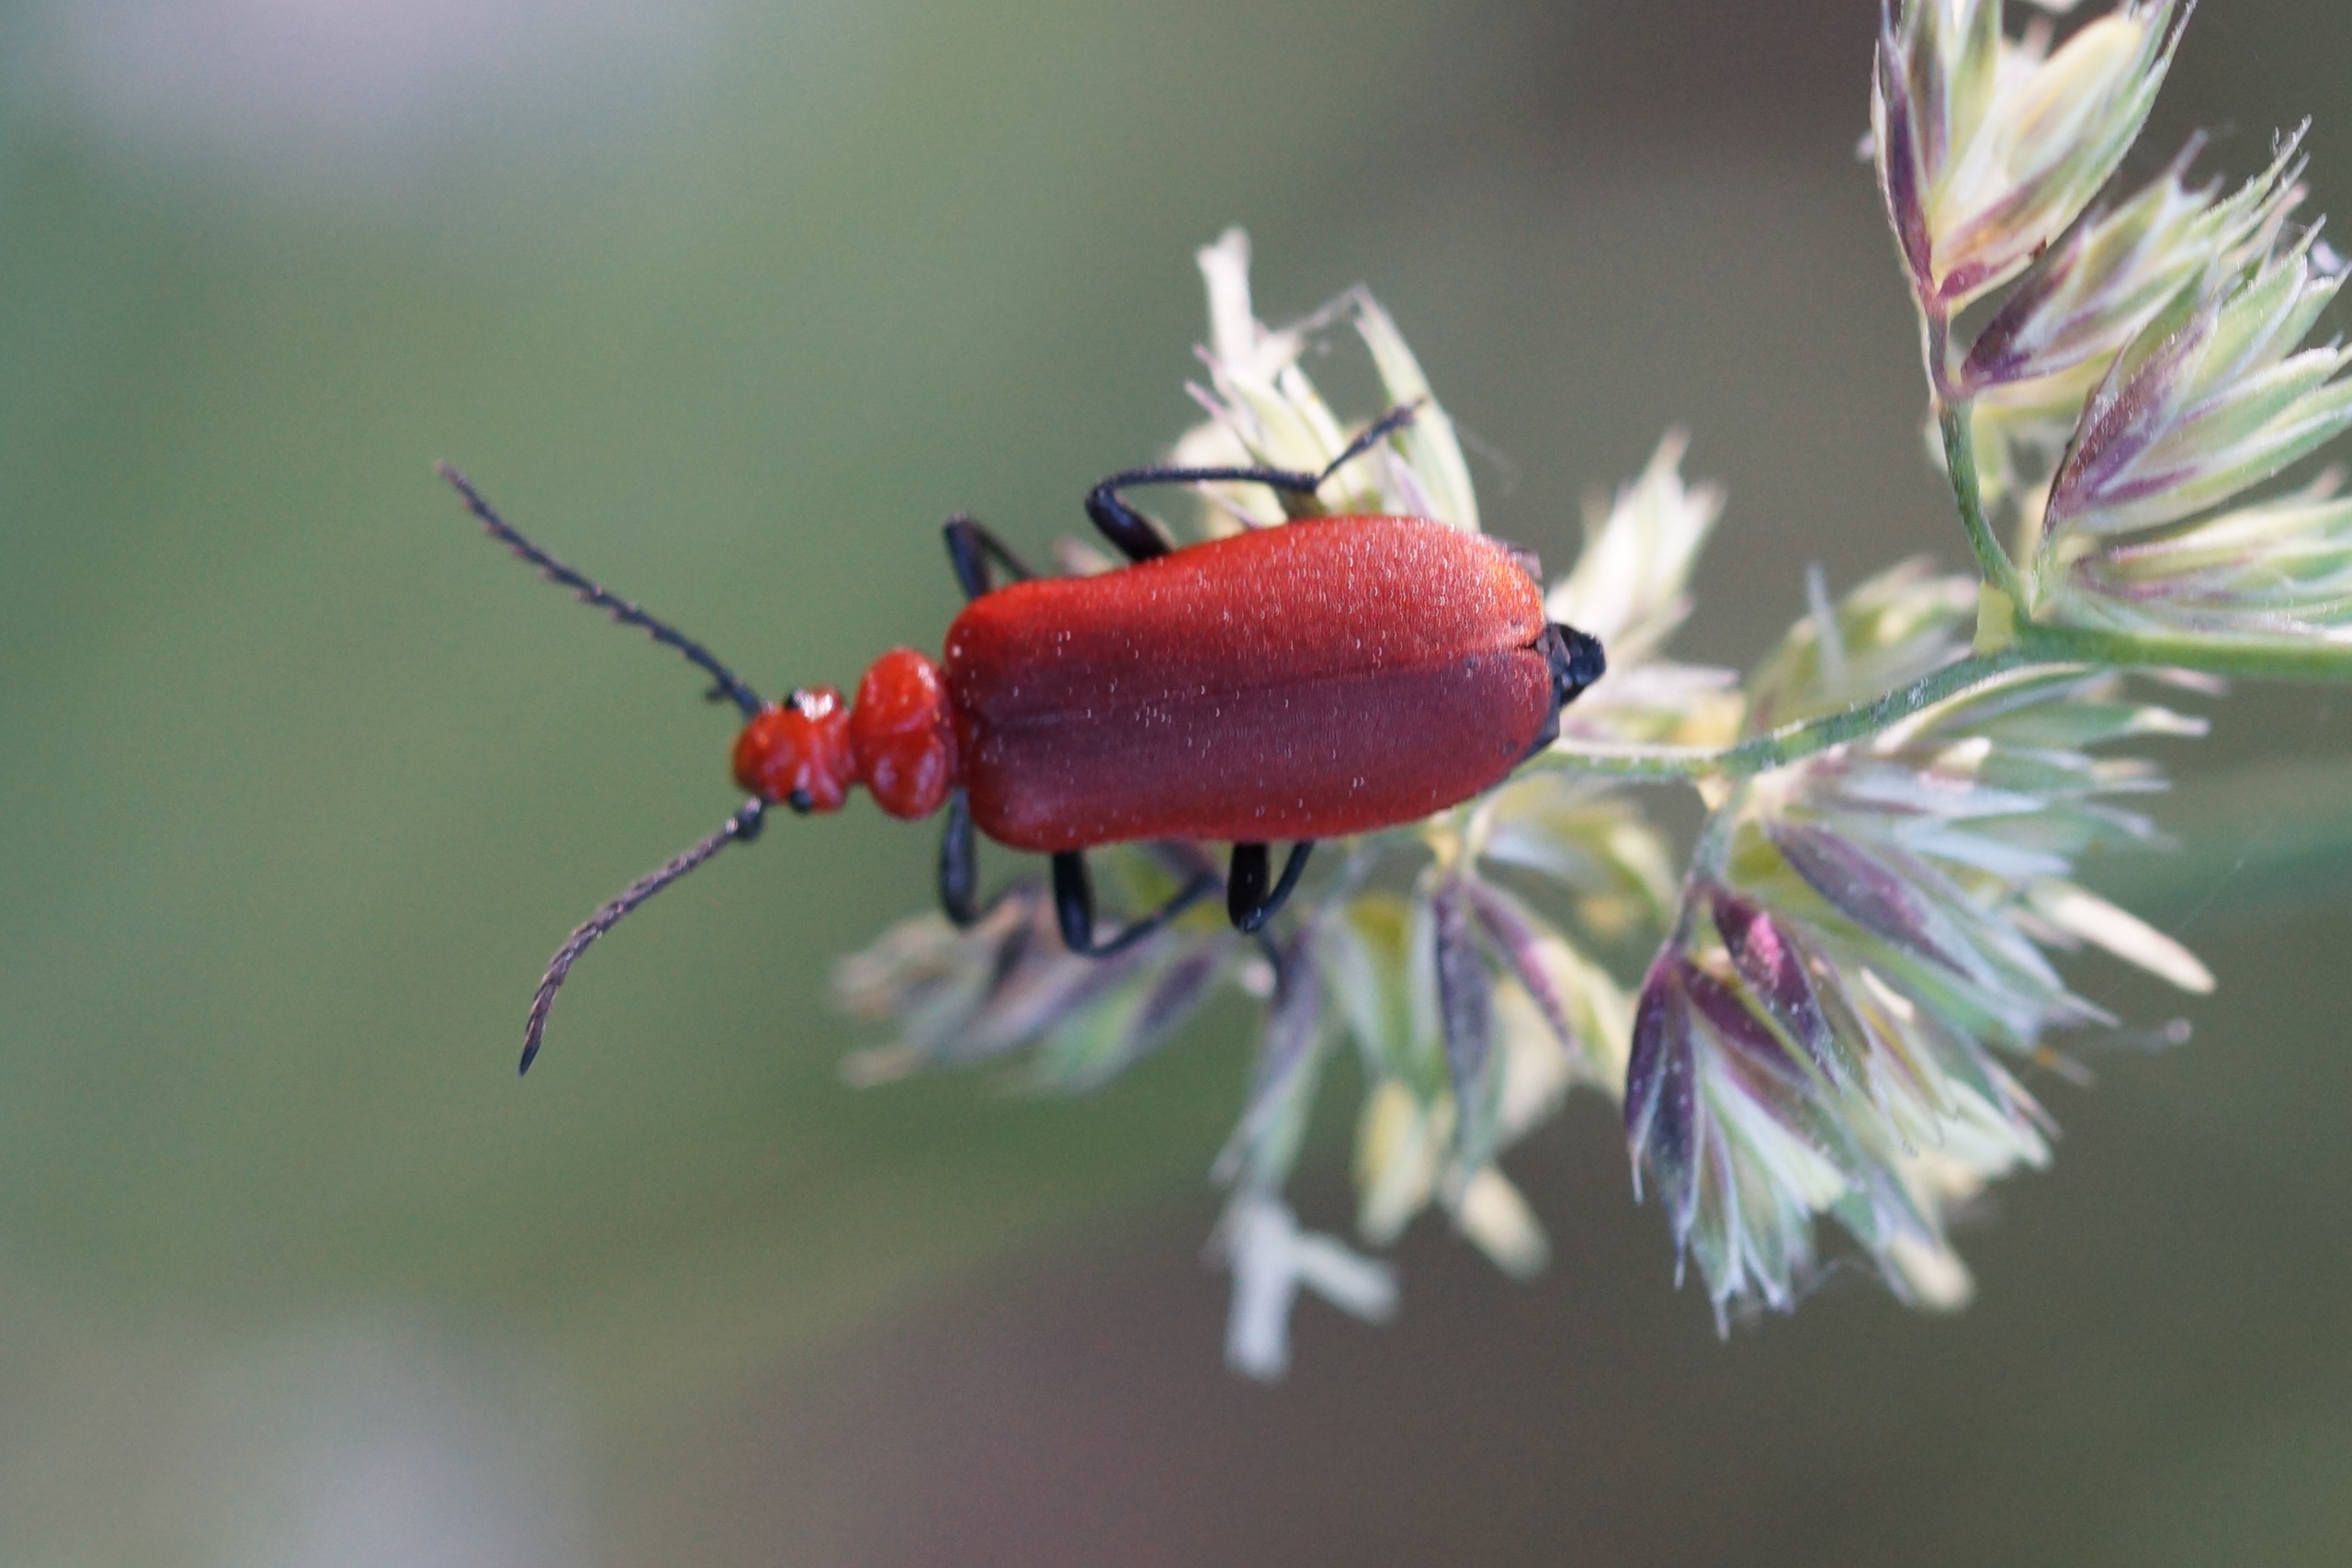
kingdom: Animalia
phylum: Arthropoda
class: Insecta
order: Coleoptera
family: Pyrochroidae
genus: Pyrochroa
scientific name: Pyrochroa serraticornis
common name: Rødhovedet kardinalbille
